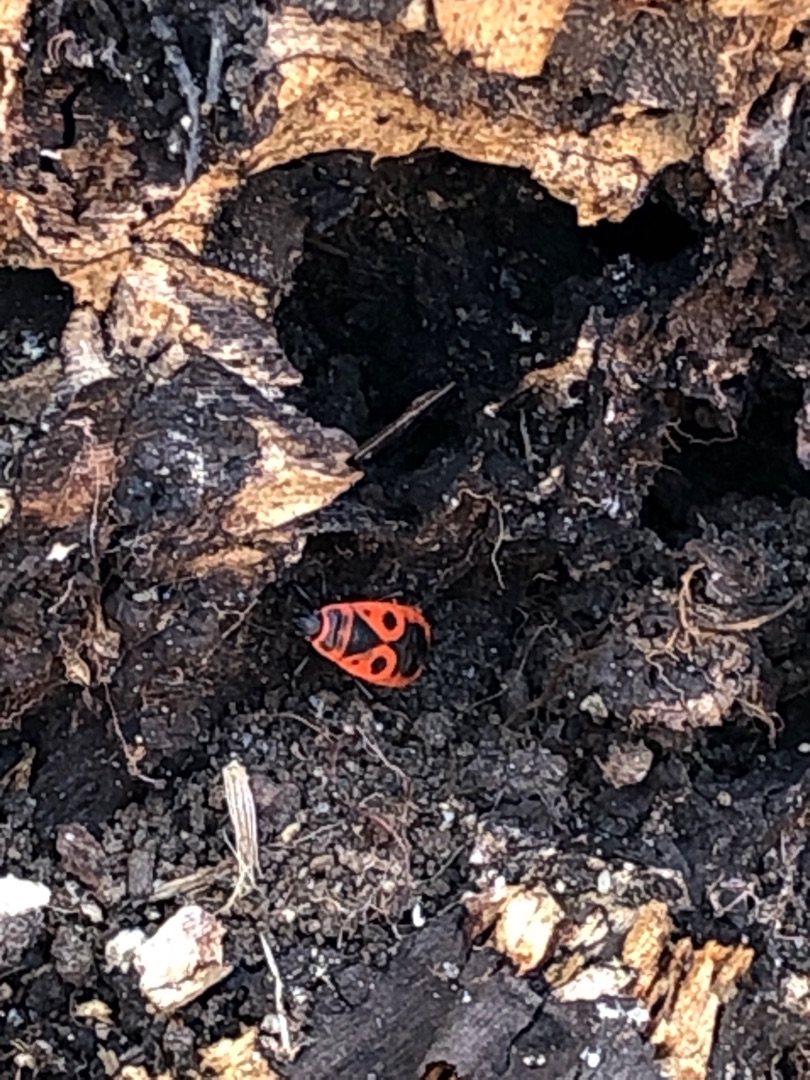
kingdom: Animalia
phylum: Arthropoda
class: Insecta
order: Hemiptera
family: Pyrrhocoridae
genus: Pyrrhocoris
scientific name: Pyrrhocoris apterus
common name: Ildtæge
